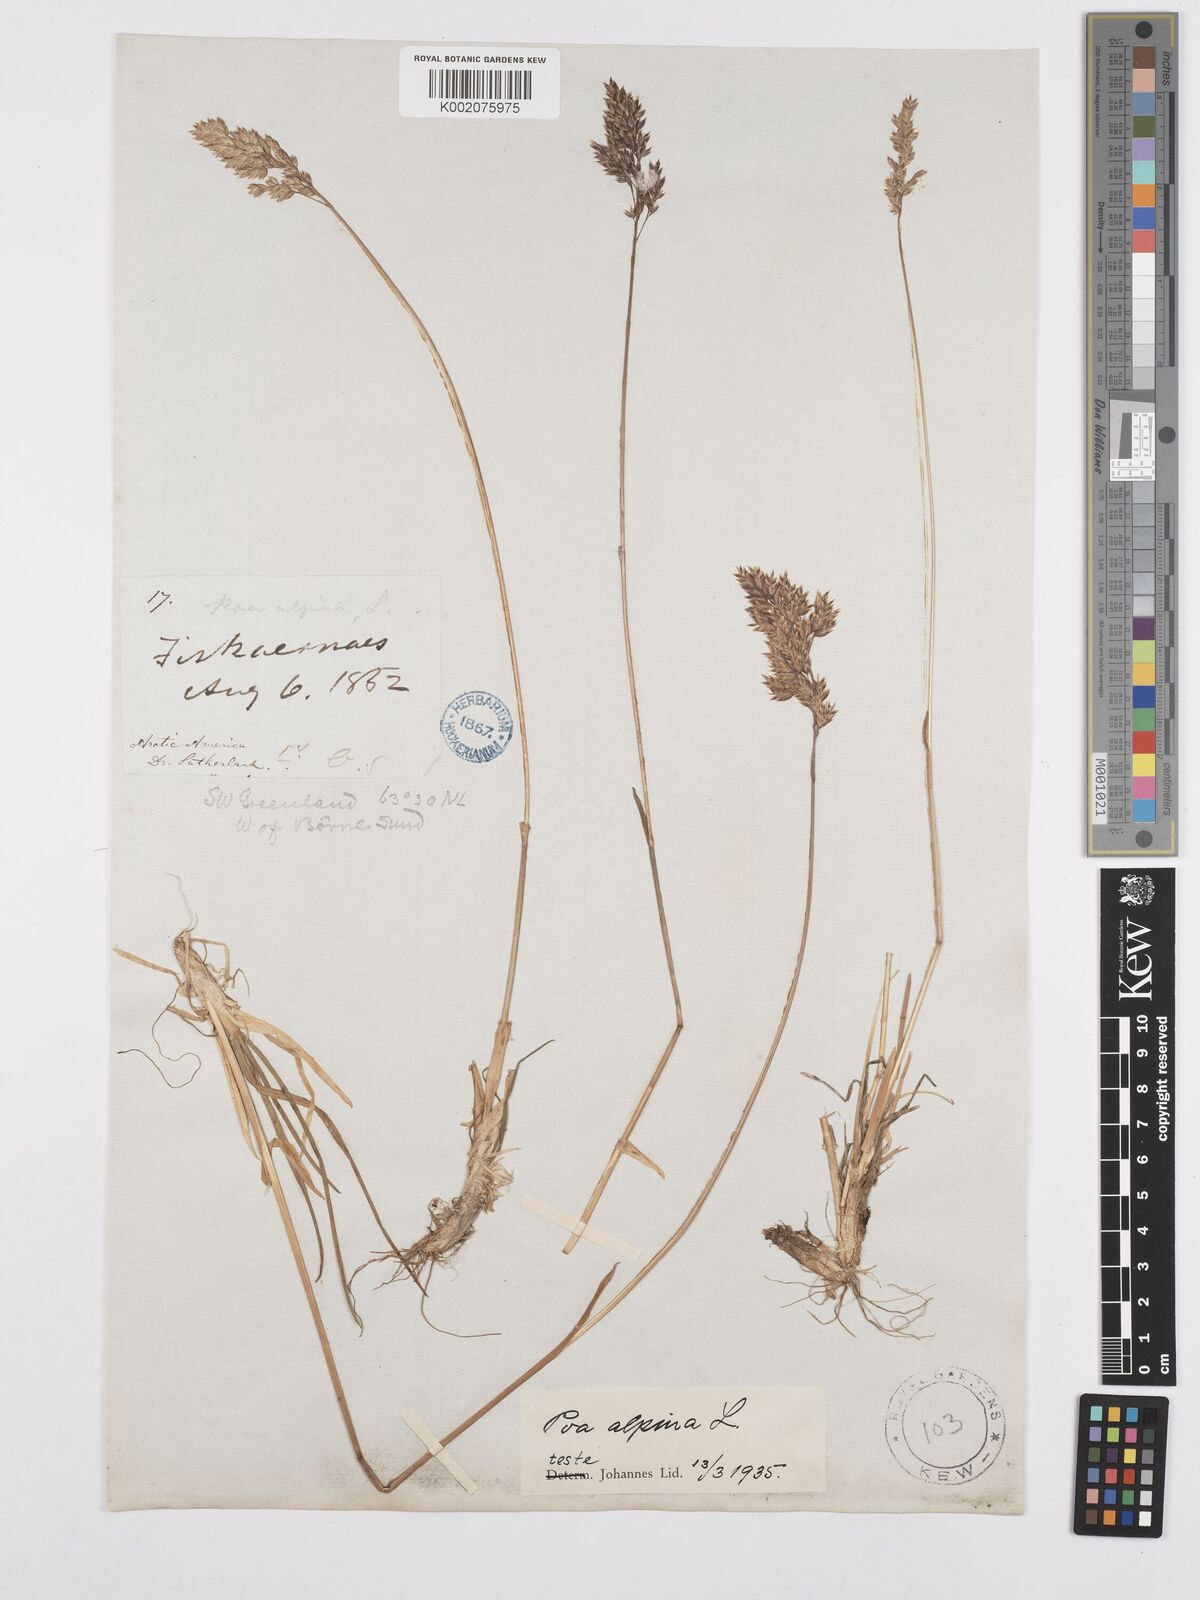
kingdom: Plantae
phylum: Tracheophyta
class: Liliopsida
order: Poales
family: Poaceae
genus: Poa
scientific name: Poa alpina
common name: Alpine bluegrass
